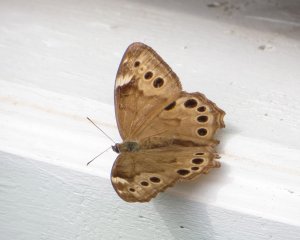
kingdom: Animalia
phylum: Arthropoda
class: Insecta
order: Lepidoptera
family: Nymphalidae
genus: Lethe
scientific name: Lethe anthedon
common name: Northern Pearly-Eye
